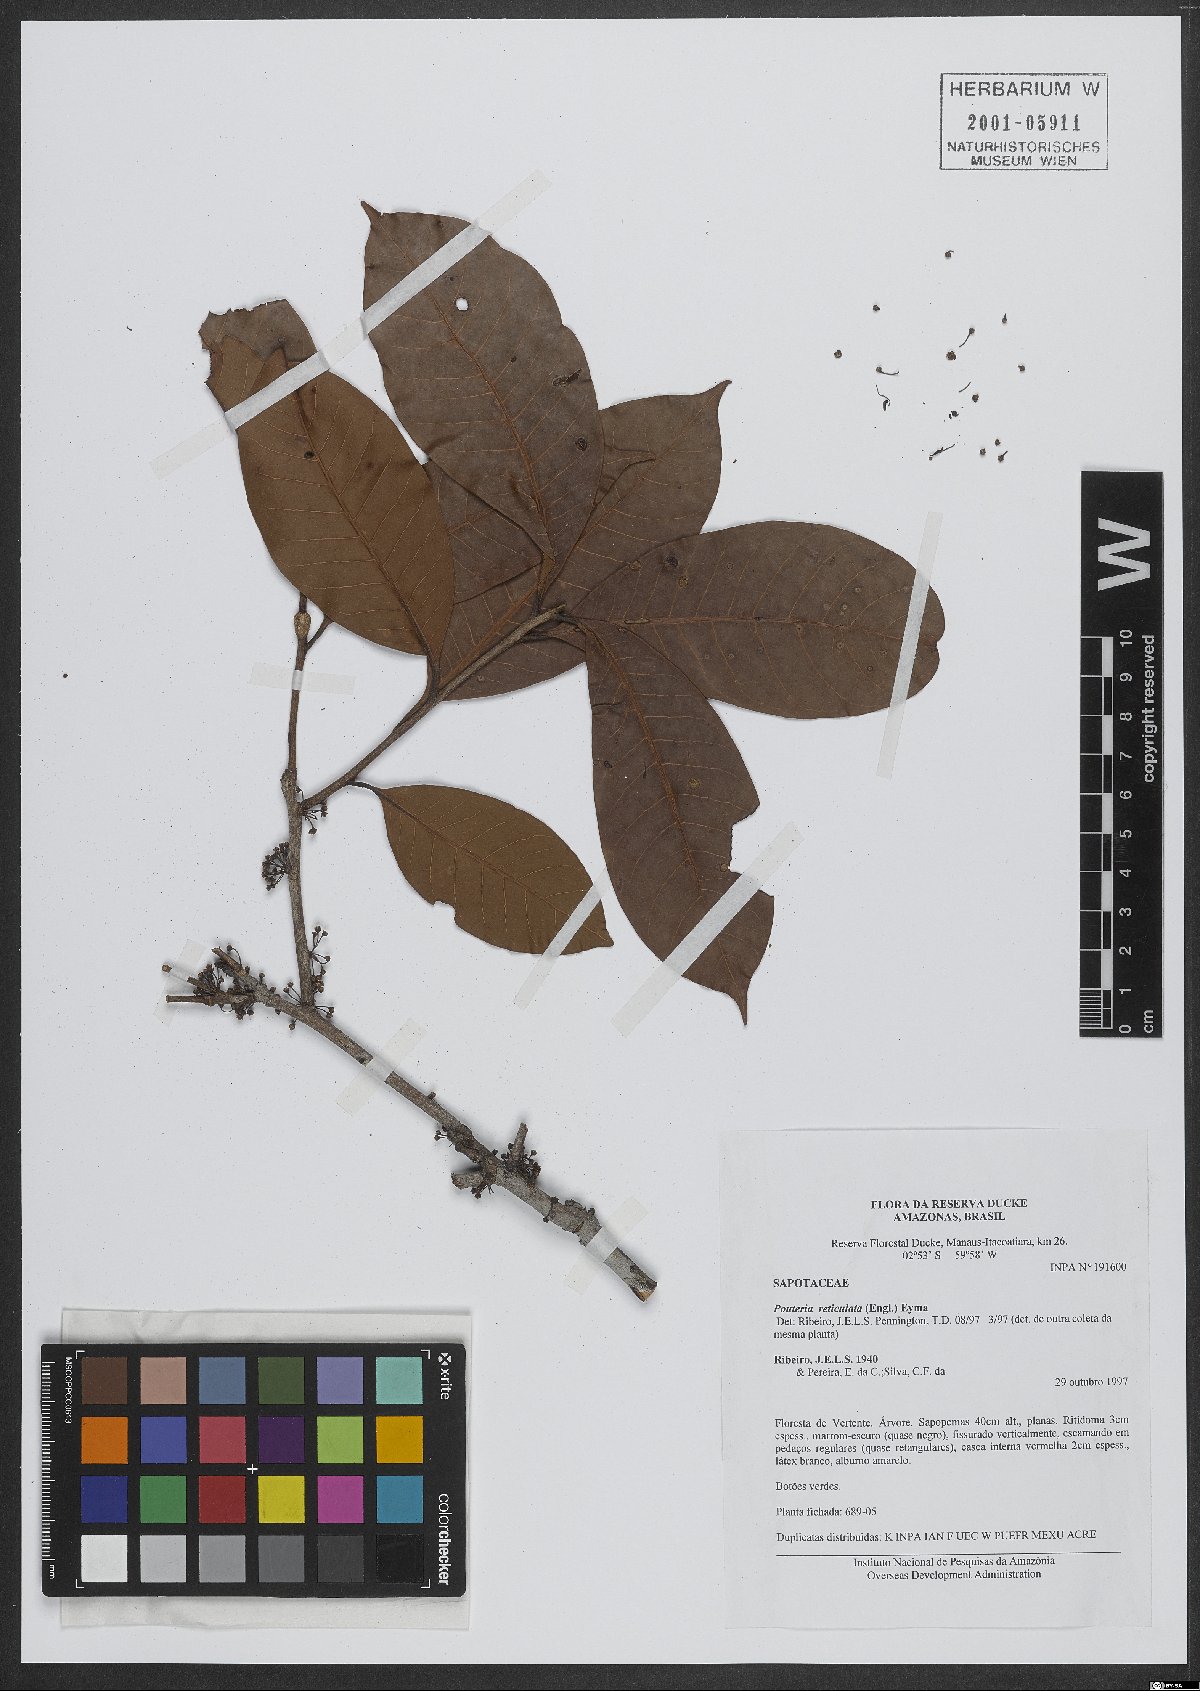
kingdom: Plantae
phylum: Tracheophyta
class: Magnoliopsida
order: Ericales
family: Sapotaceae
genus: Pouteria
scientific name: Pouteria reticulata
